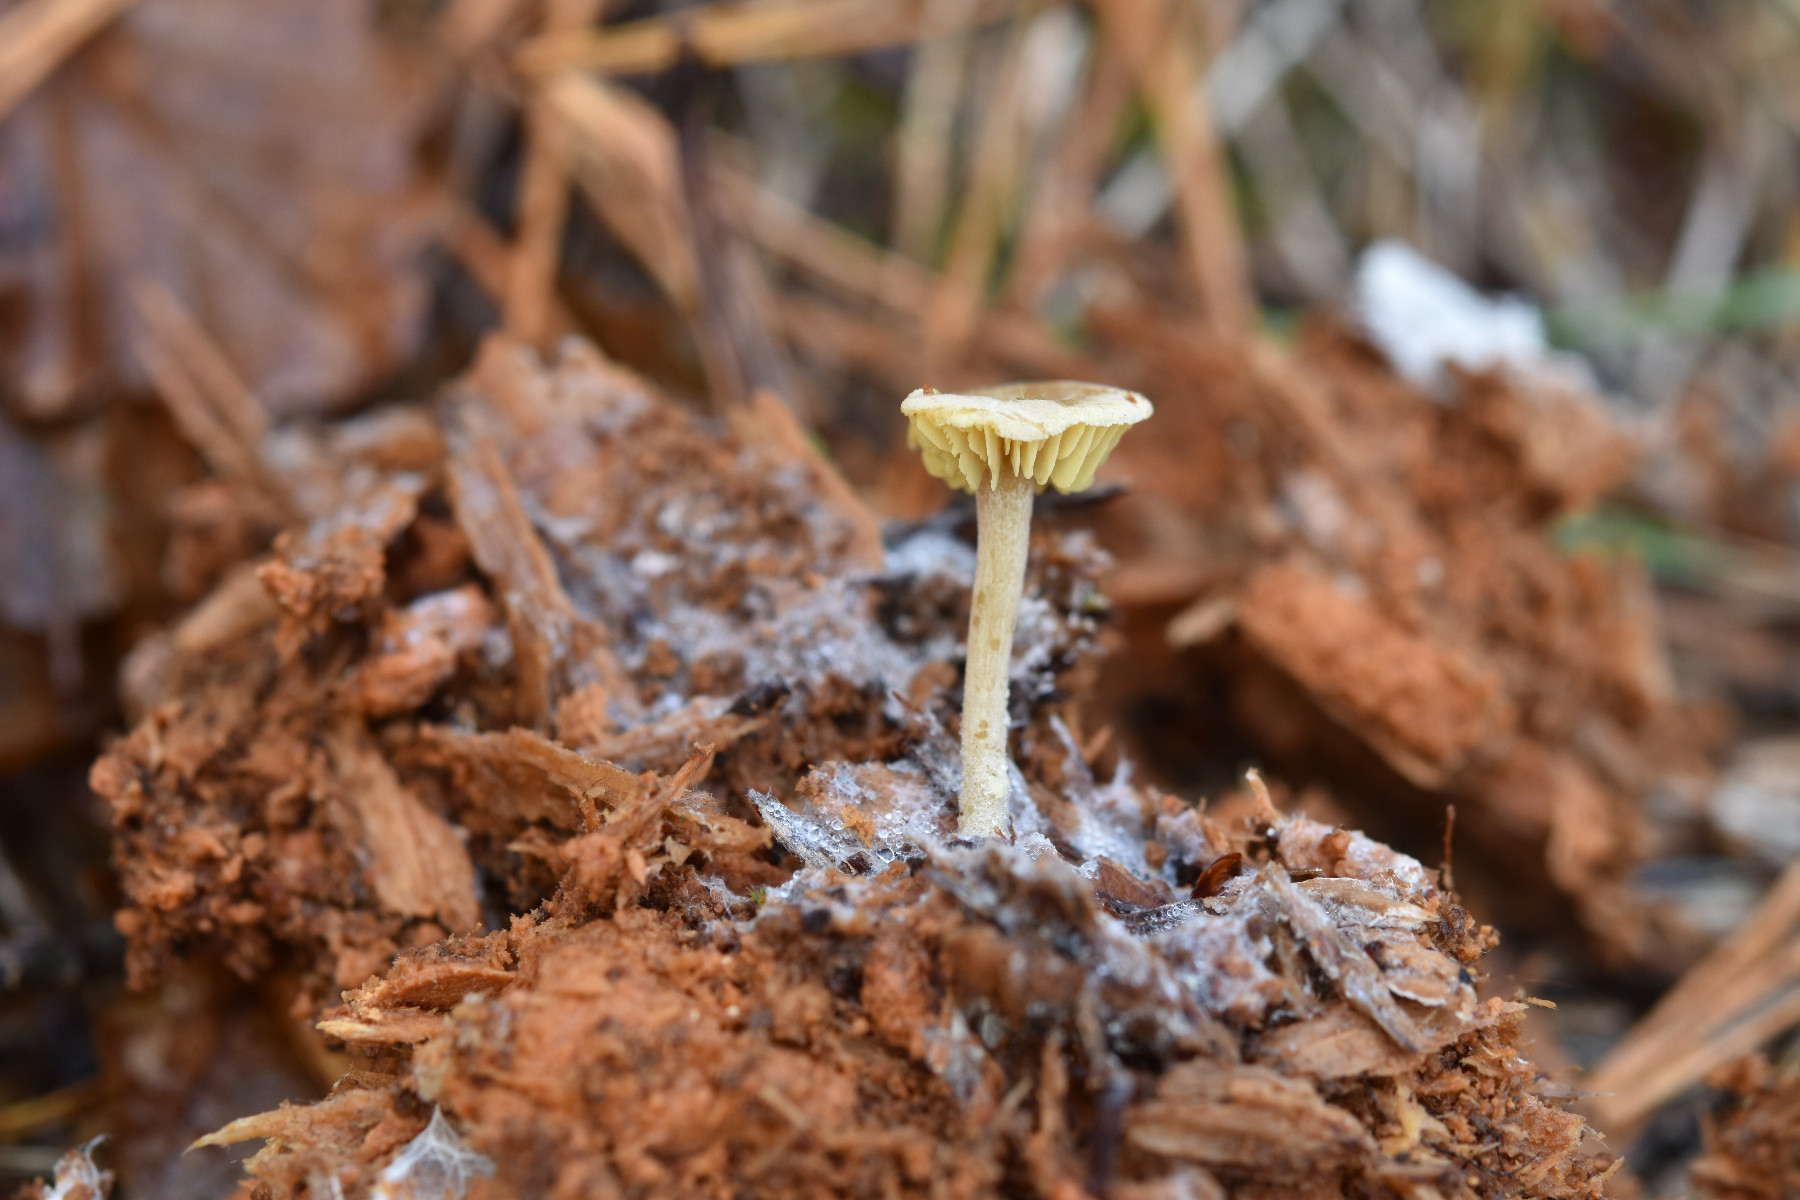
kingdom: Fungi
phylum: Basidiomycota
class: Agaricomycetes
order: Agaricales
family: Callistosporiaceae
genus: Callistosporium
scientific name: Callistosporium pinicola
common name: småsporet ravhat
